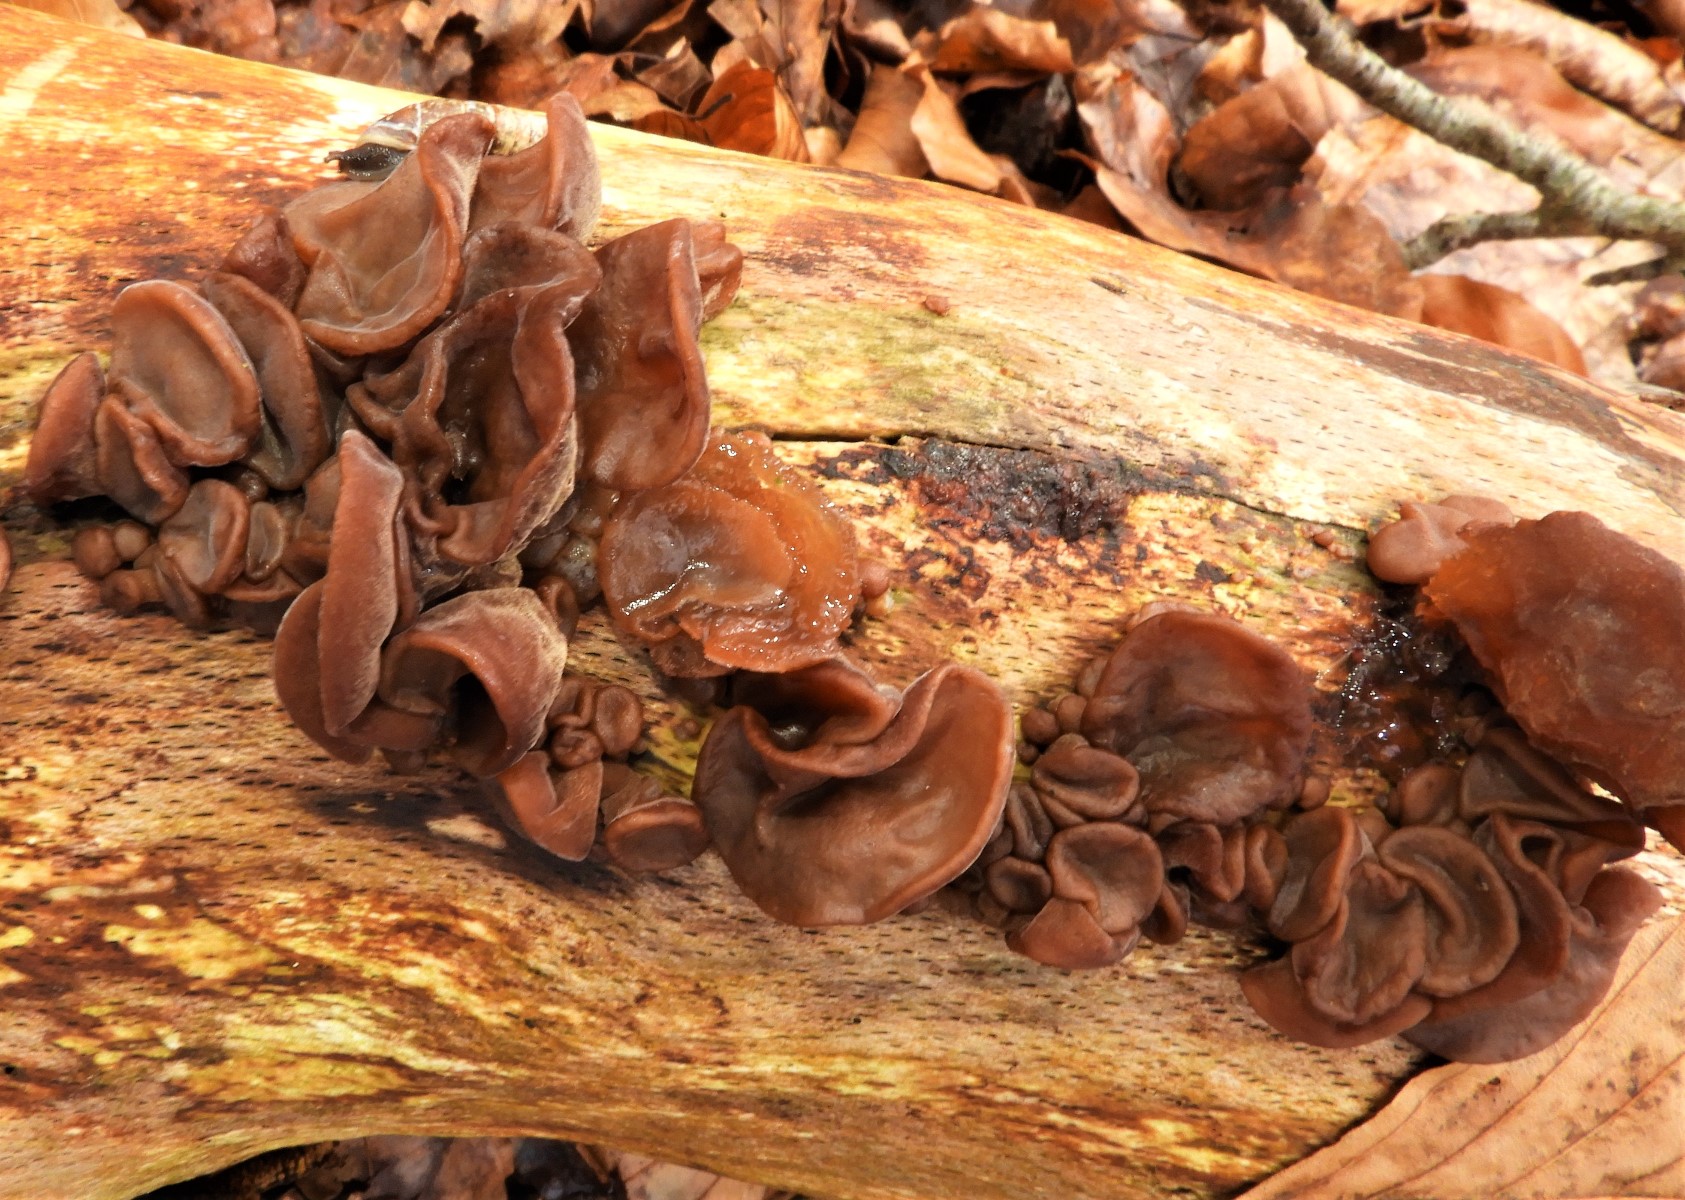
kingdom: Fungi
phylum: Basidiomycota
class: Agaricomycetes
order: Auriculariales
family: Auriculariaceae
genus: Auricularia
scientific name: Auricularia auricula-judae
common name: almindelig judasøre
